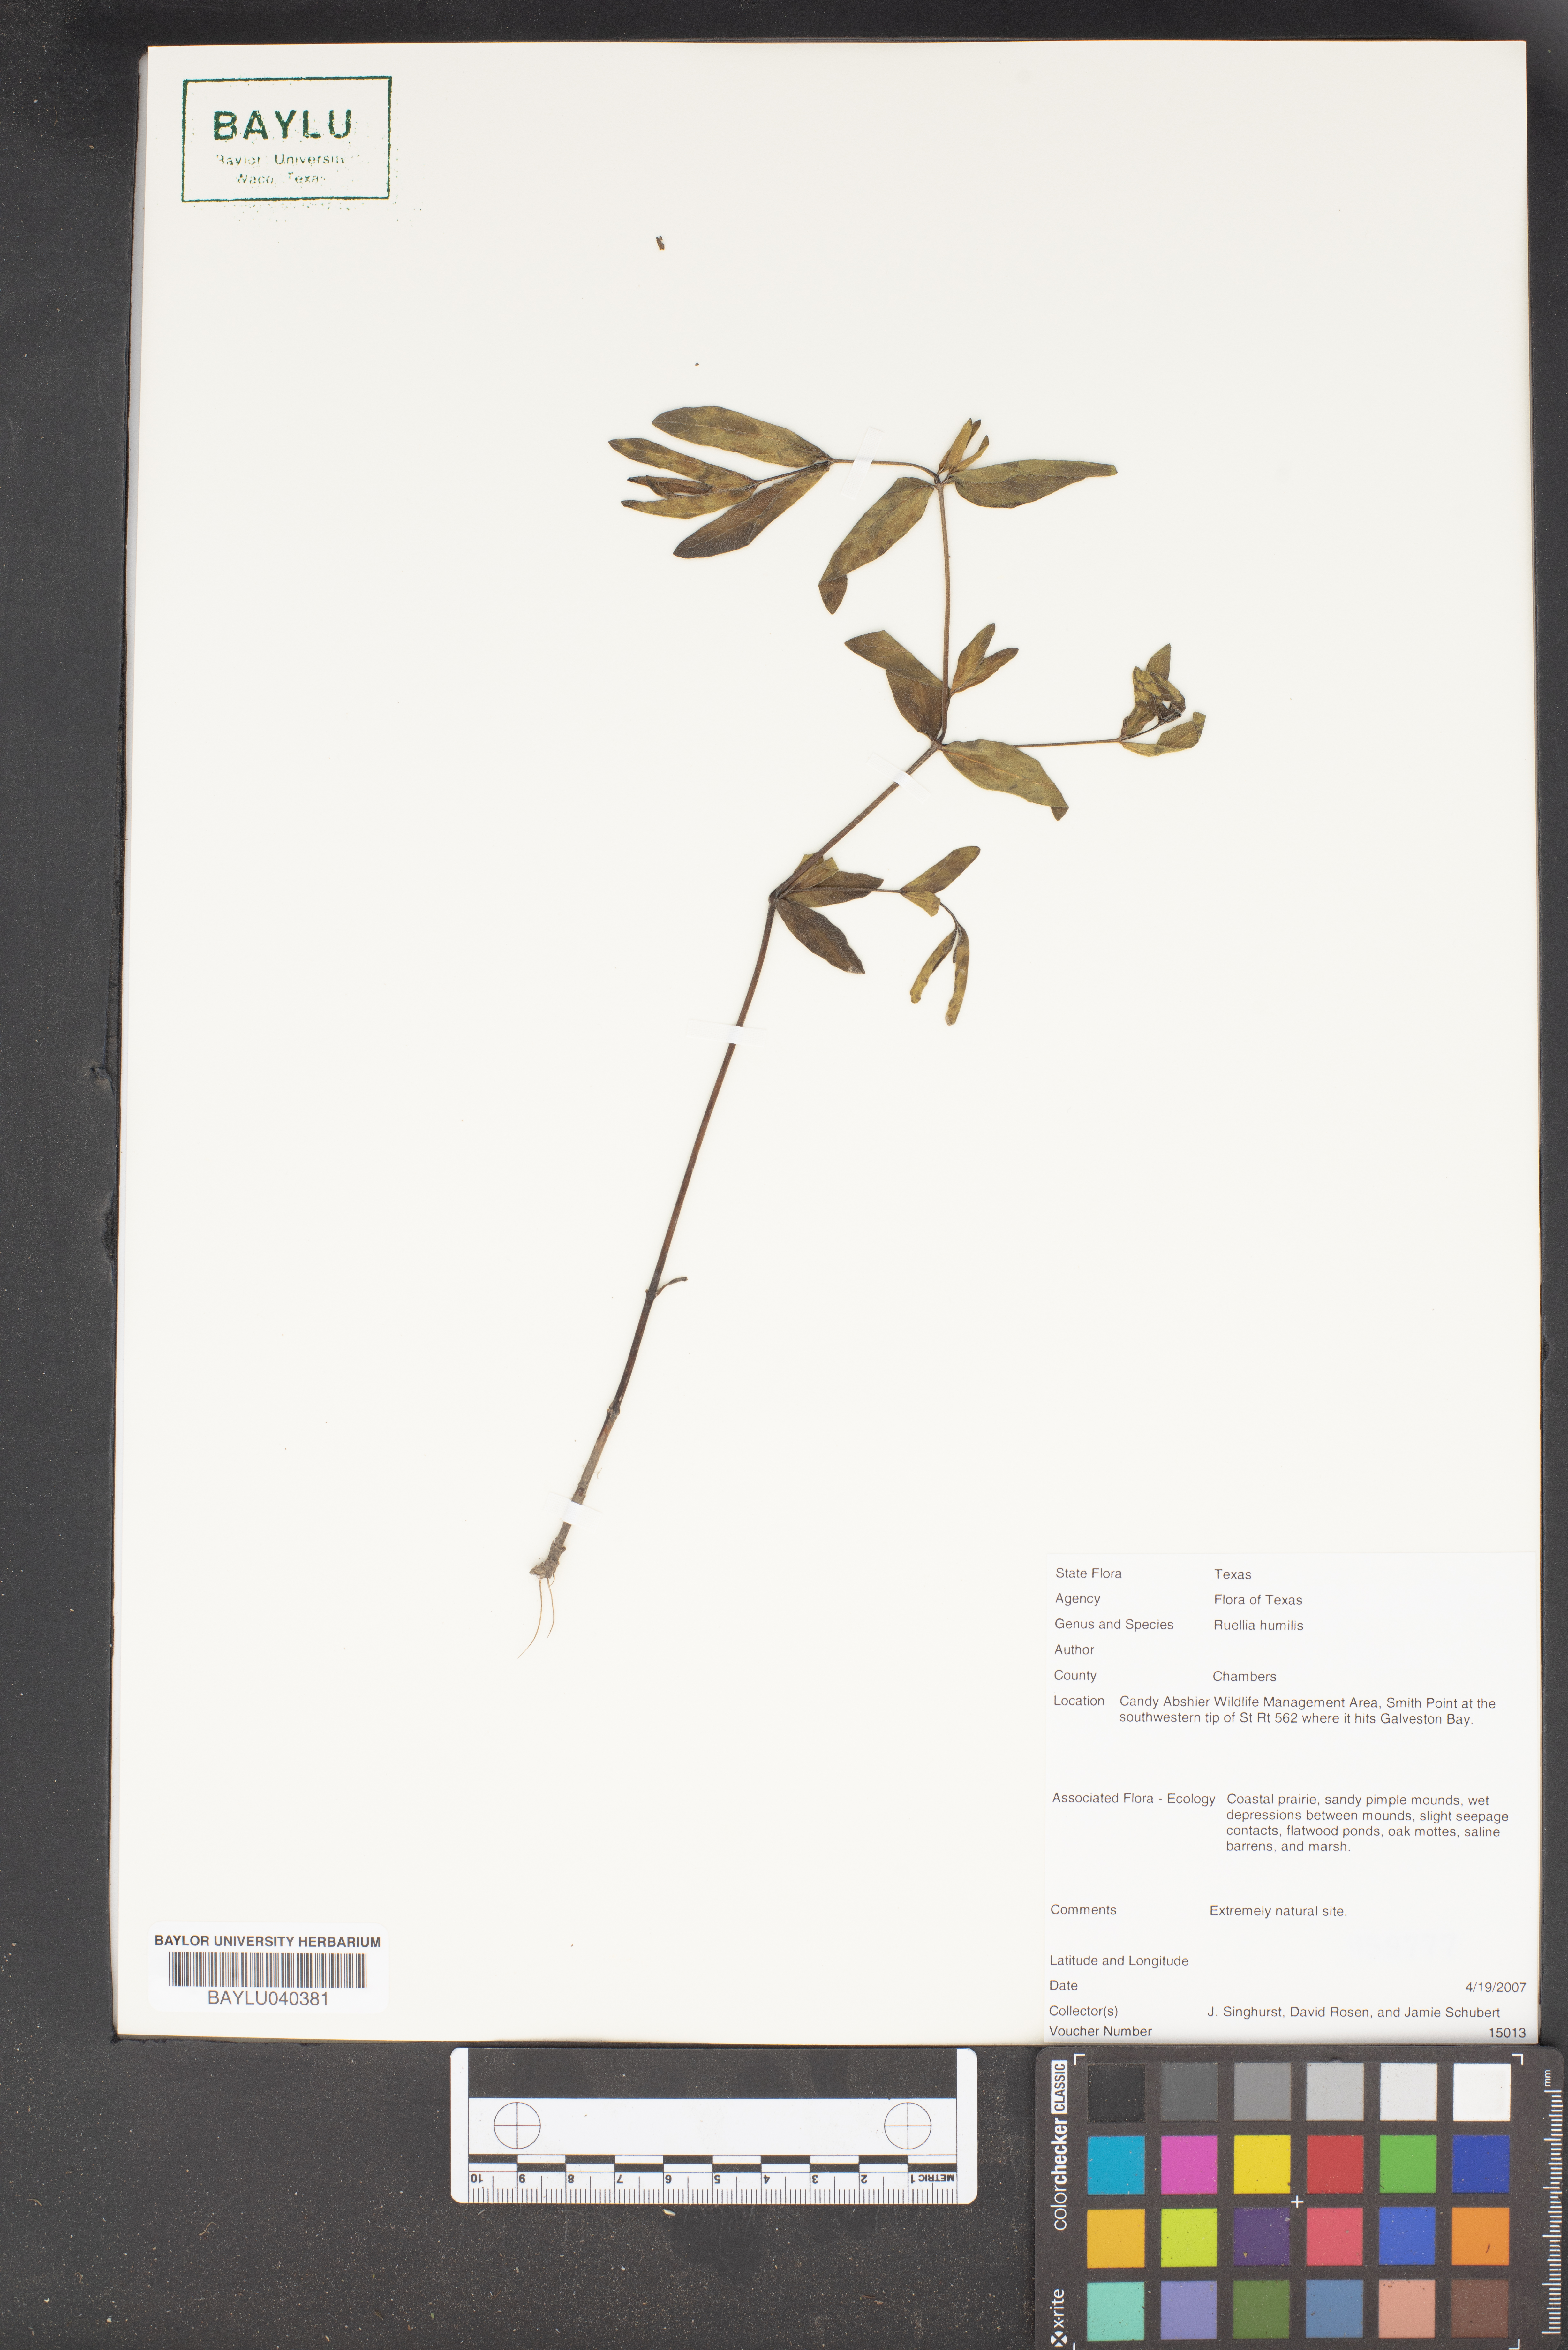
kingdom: Plantae
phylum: Tracheophyta
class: Magnoliopsida
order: Lamiales
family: Acanthaceae
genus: Ruellia
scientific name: Ruellia humilis
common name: Fringe-leaf ruellia
